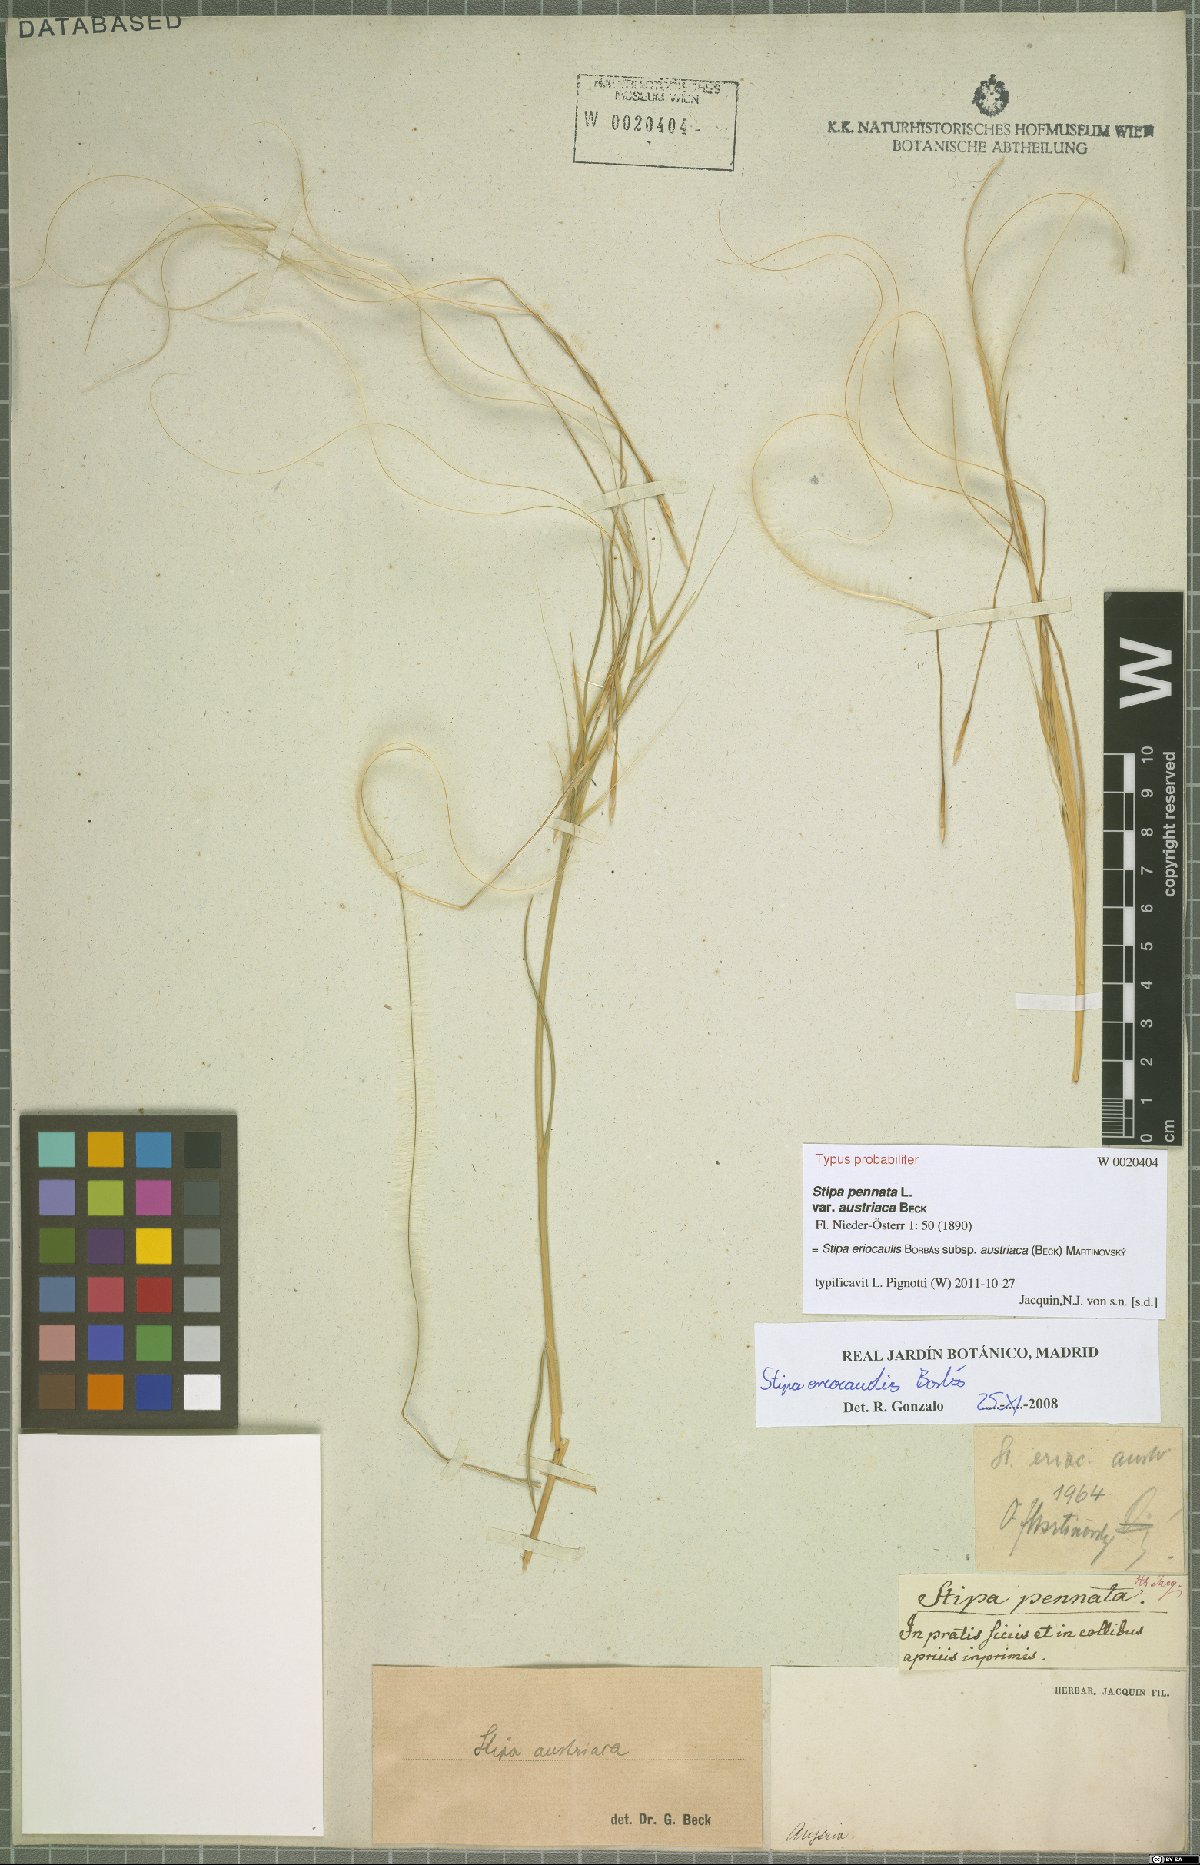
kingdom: Plantae
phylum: Tracheophyta
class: Liliopsida
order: Poales
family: Poaceae
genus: Stipa
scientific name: Stipa pennata
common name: European feather grass
